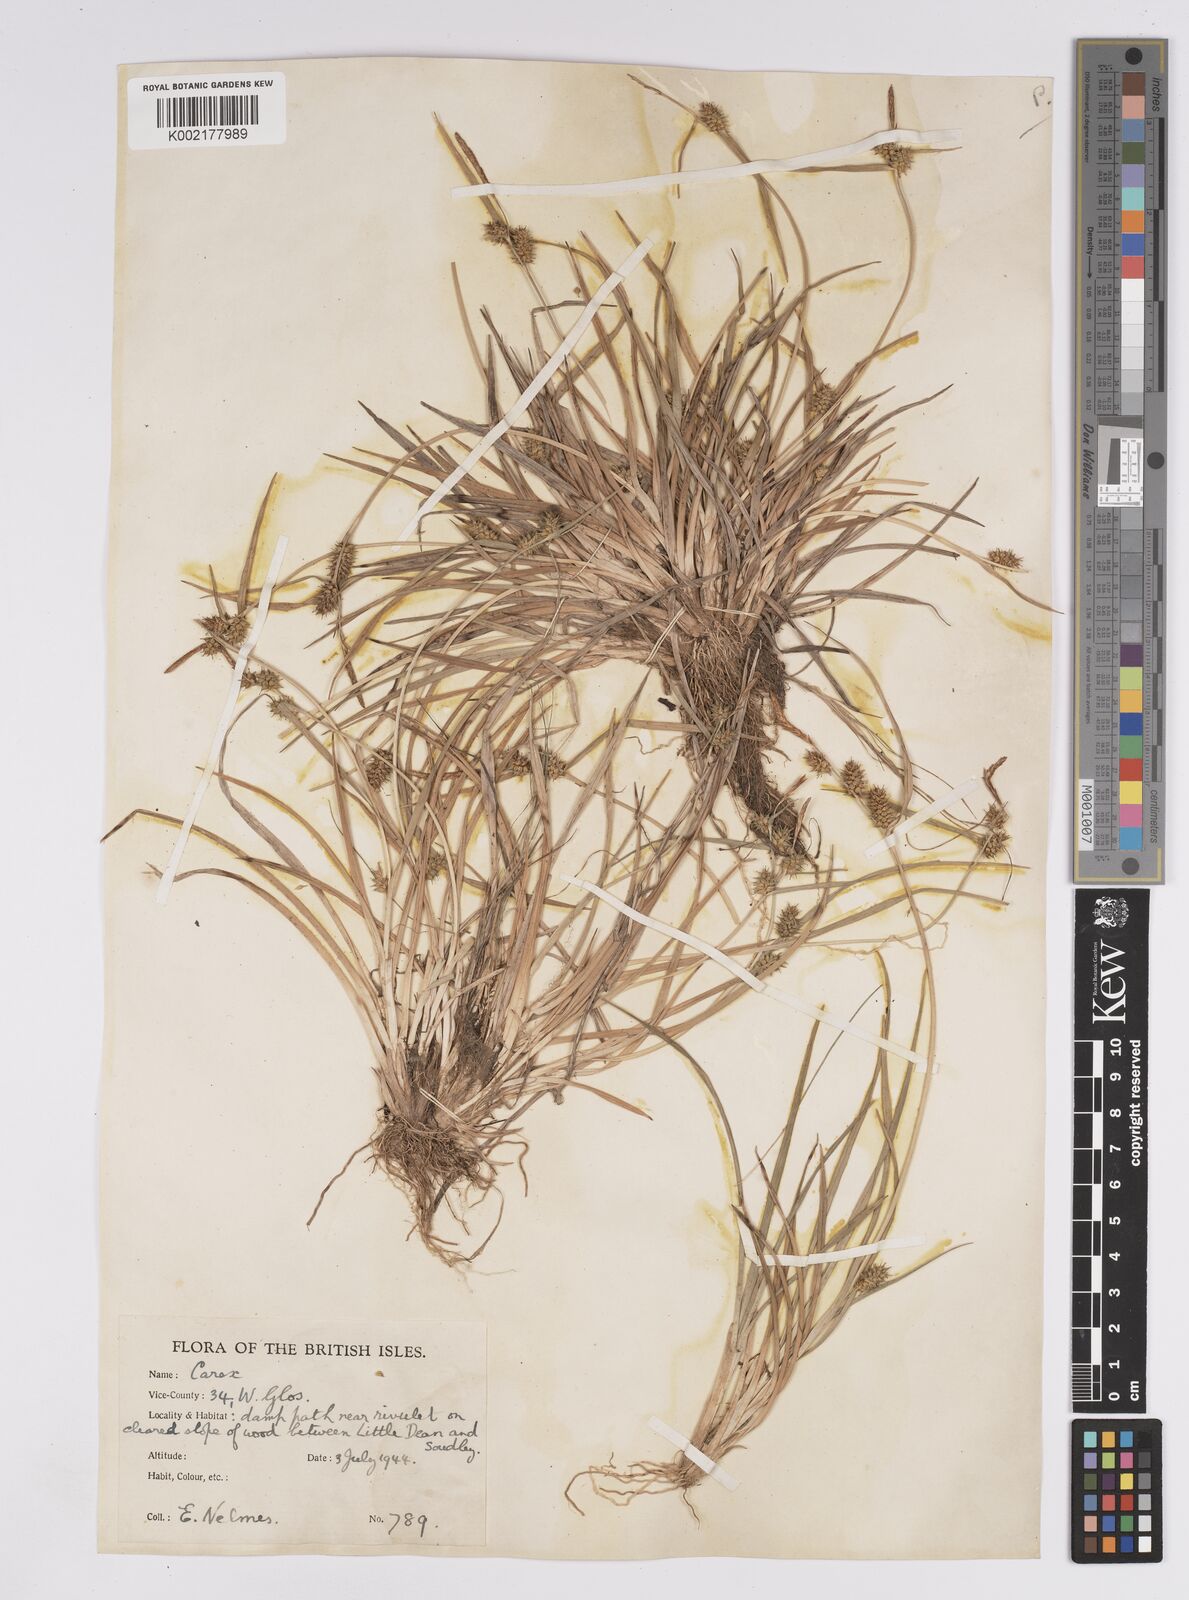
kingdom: Plantae
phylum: Tracheophyta
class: Liliopsida
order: Poales
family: Cyperaceae
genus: Carex
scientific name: Carex demissa
